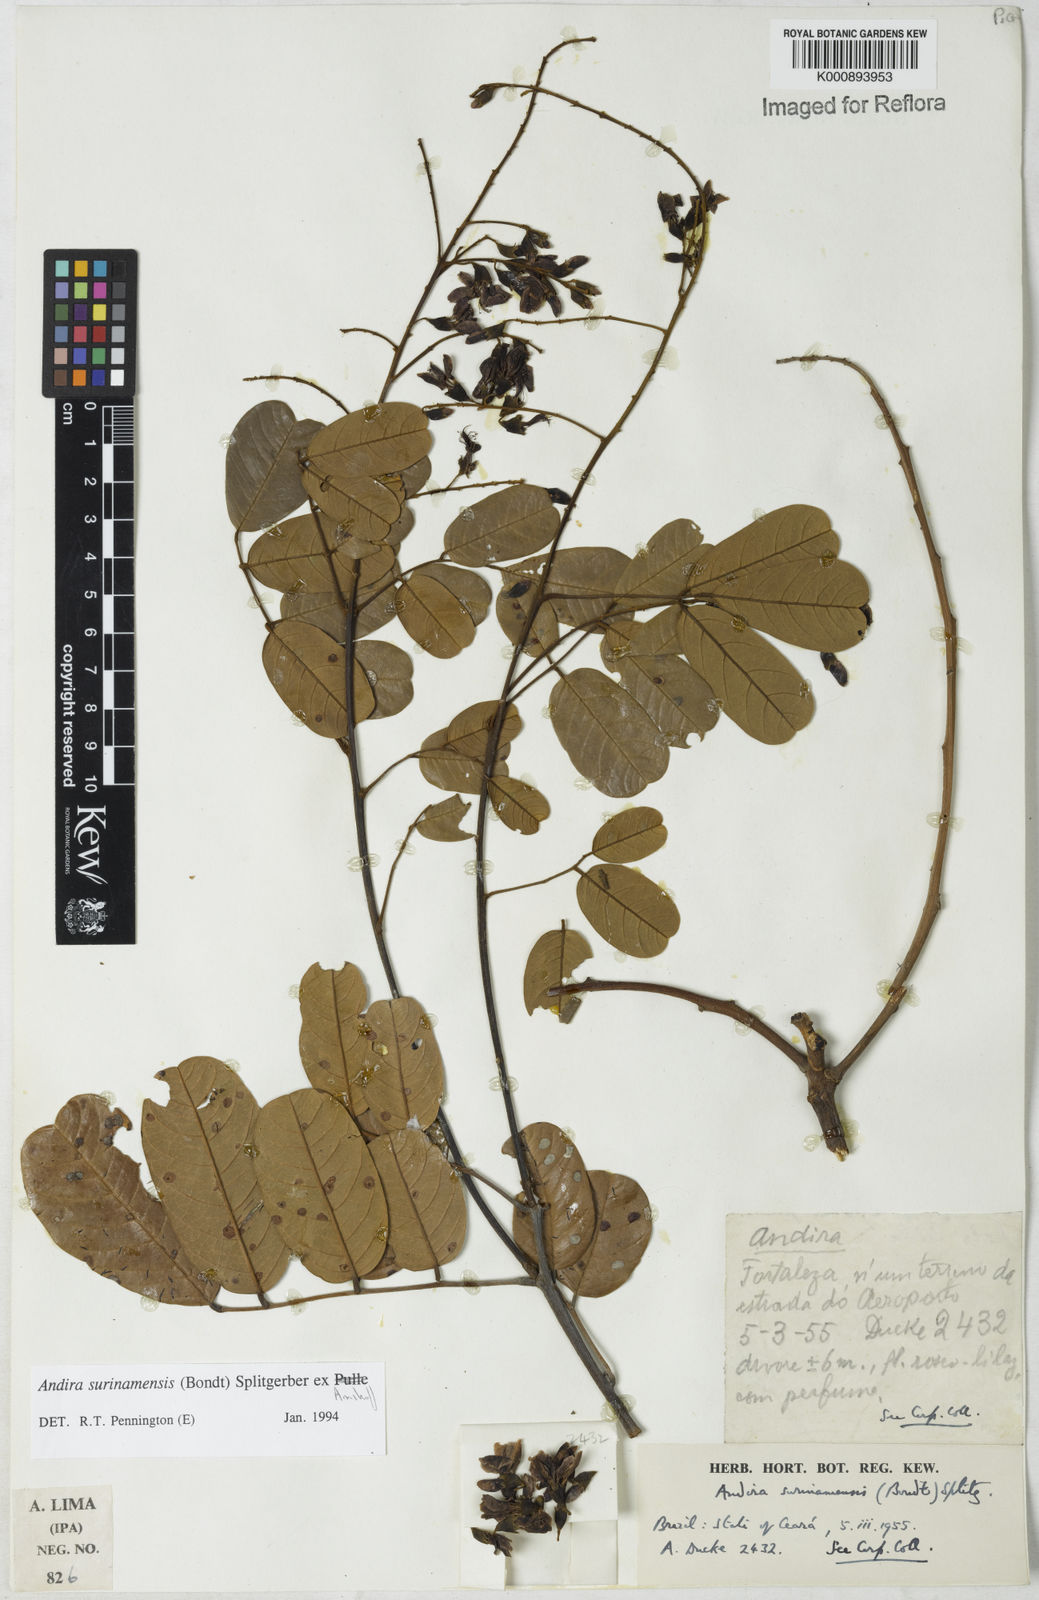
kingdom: Plantae
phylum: Tracheophyta
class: Magnoliopsida
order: Fabales
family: Fabaceae
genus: Andira
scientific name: Andira
